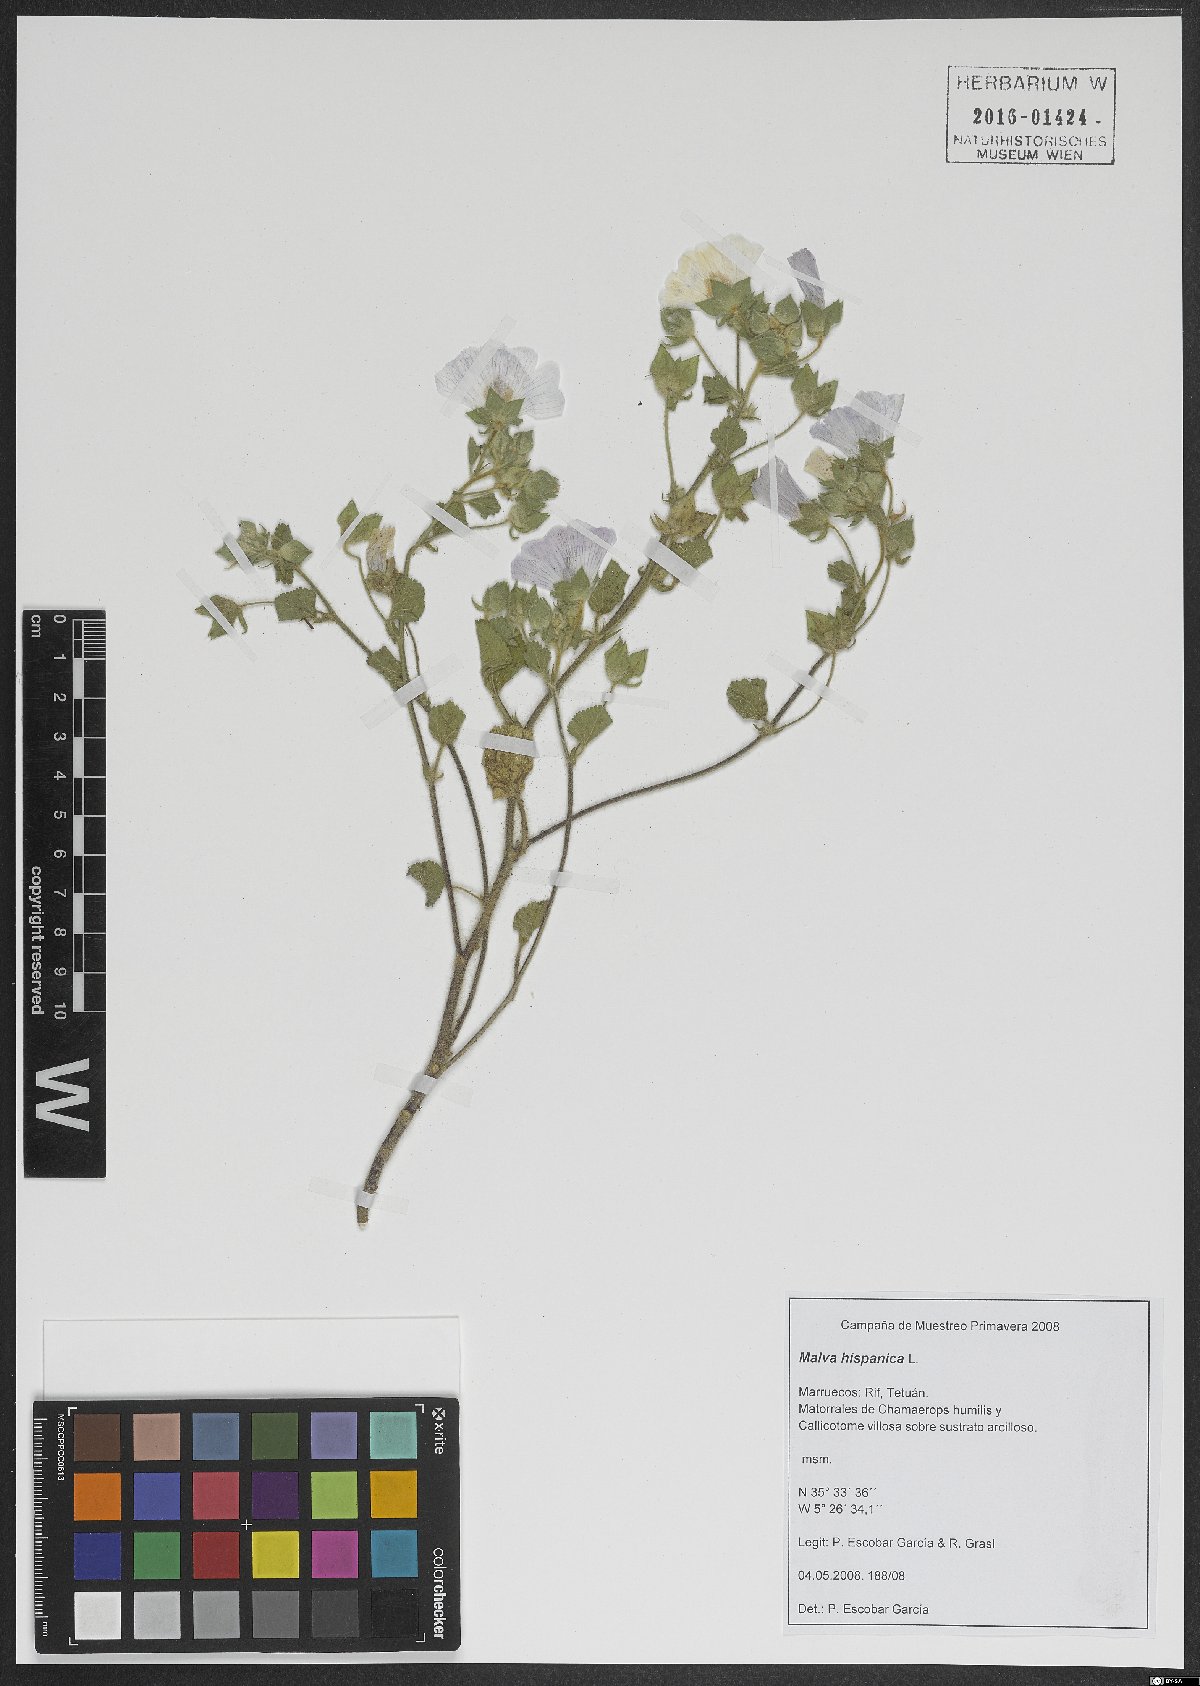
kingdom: Plantae
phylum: Tracheophyta
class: Magnoliopsida
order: Malvales
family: Malvaceae
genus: Malva
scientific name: Malva hispanica
